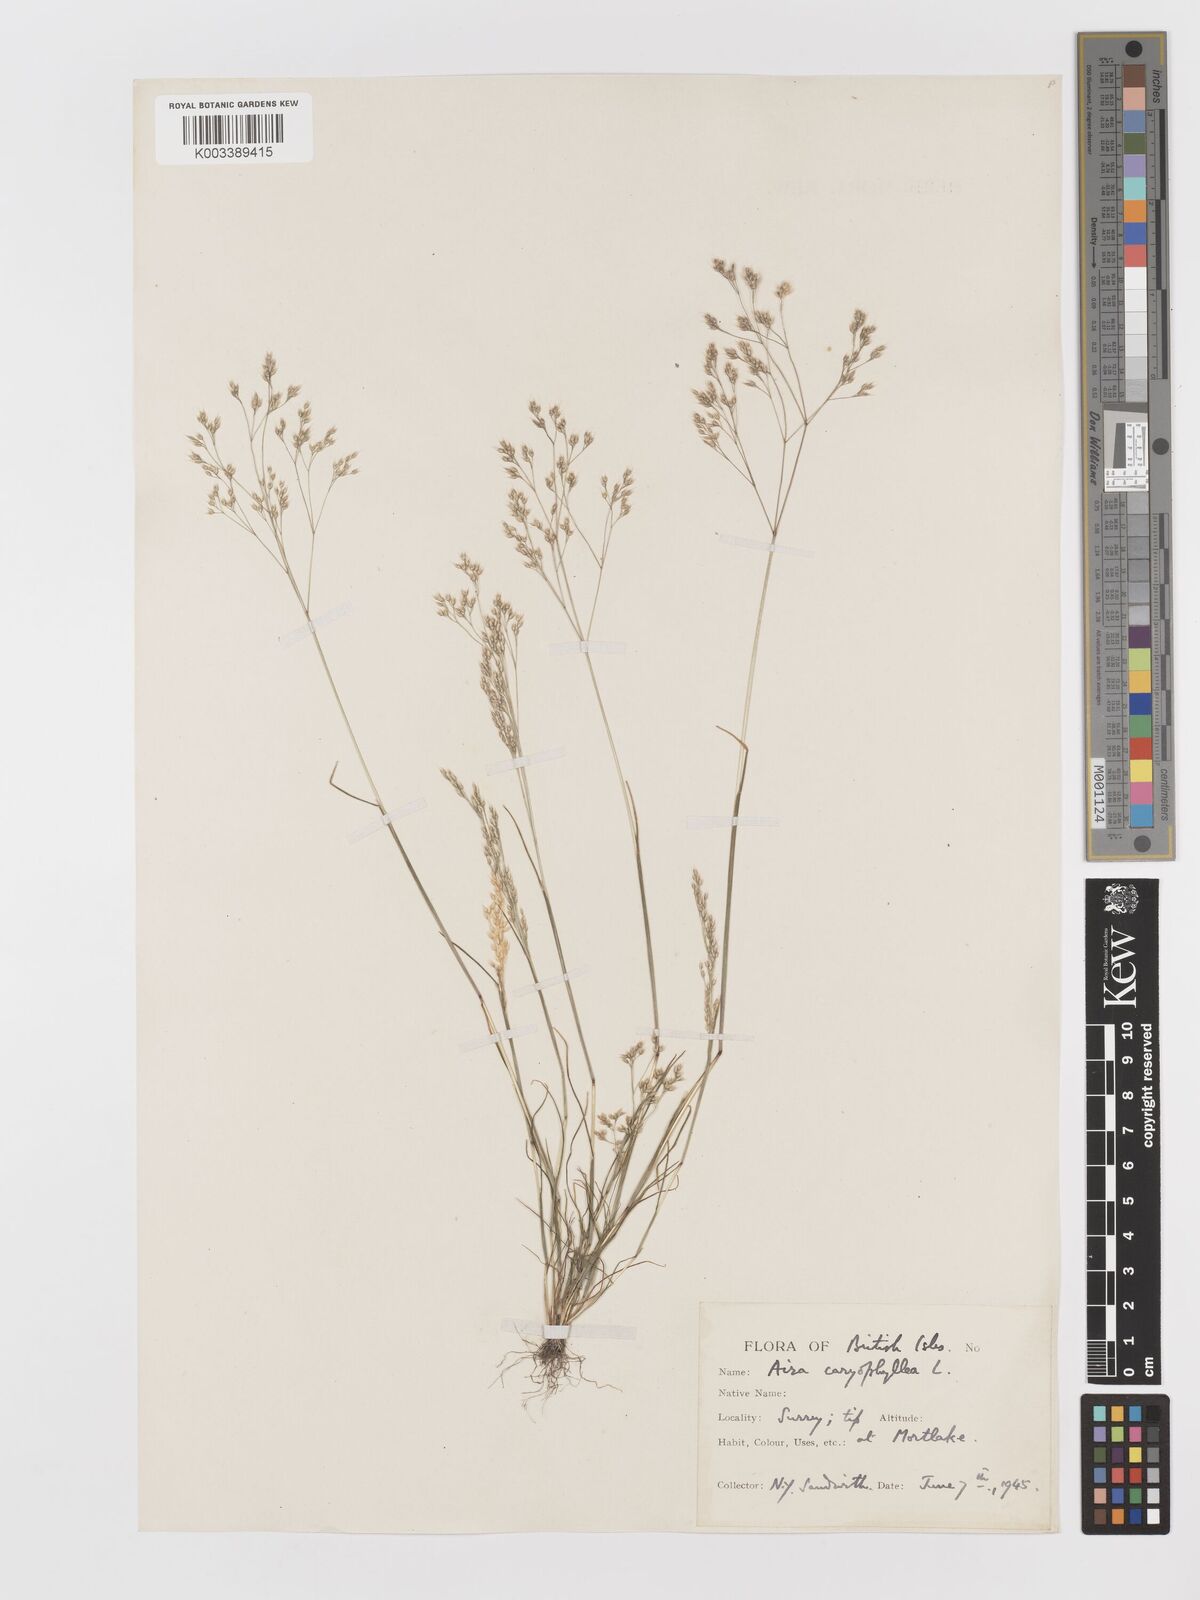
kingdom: Plantae
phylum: Tracheophyta
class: Liliopsida
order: Poales
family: Poaceae
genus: Aira
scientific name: Aira caryophyllea
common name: Silver hairgrass
